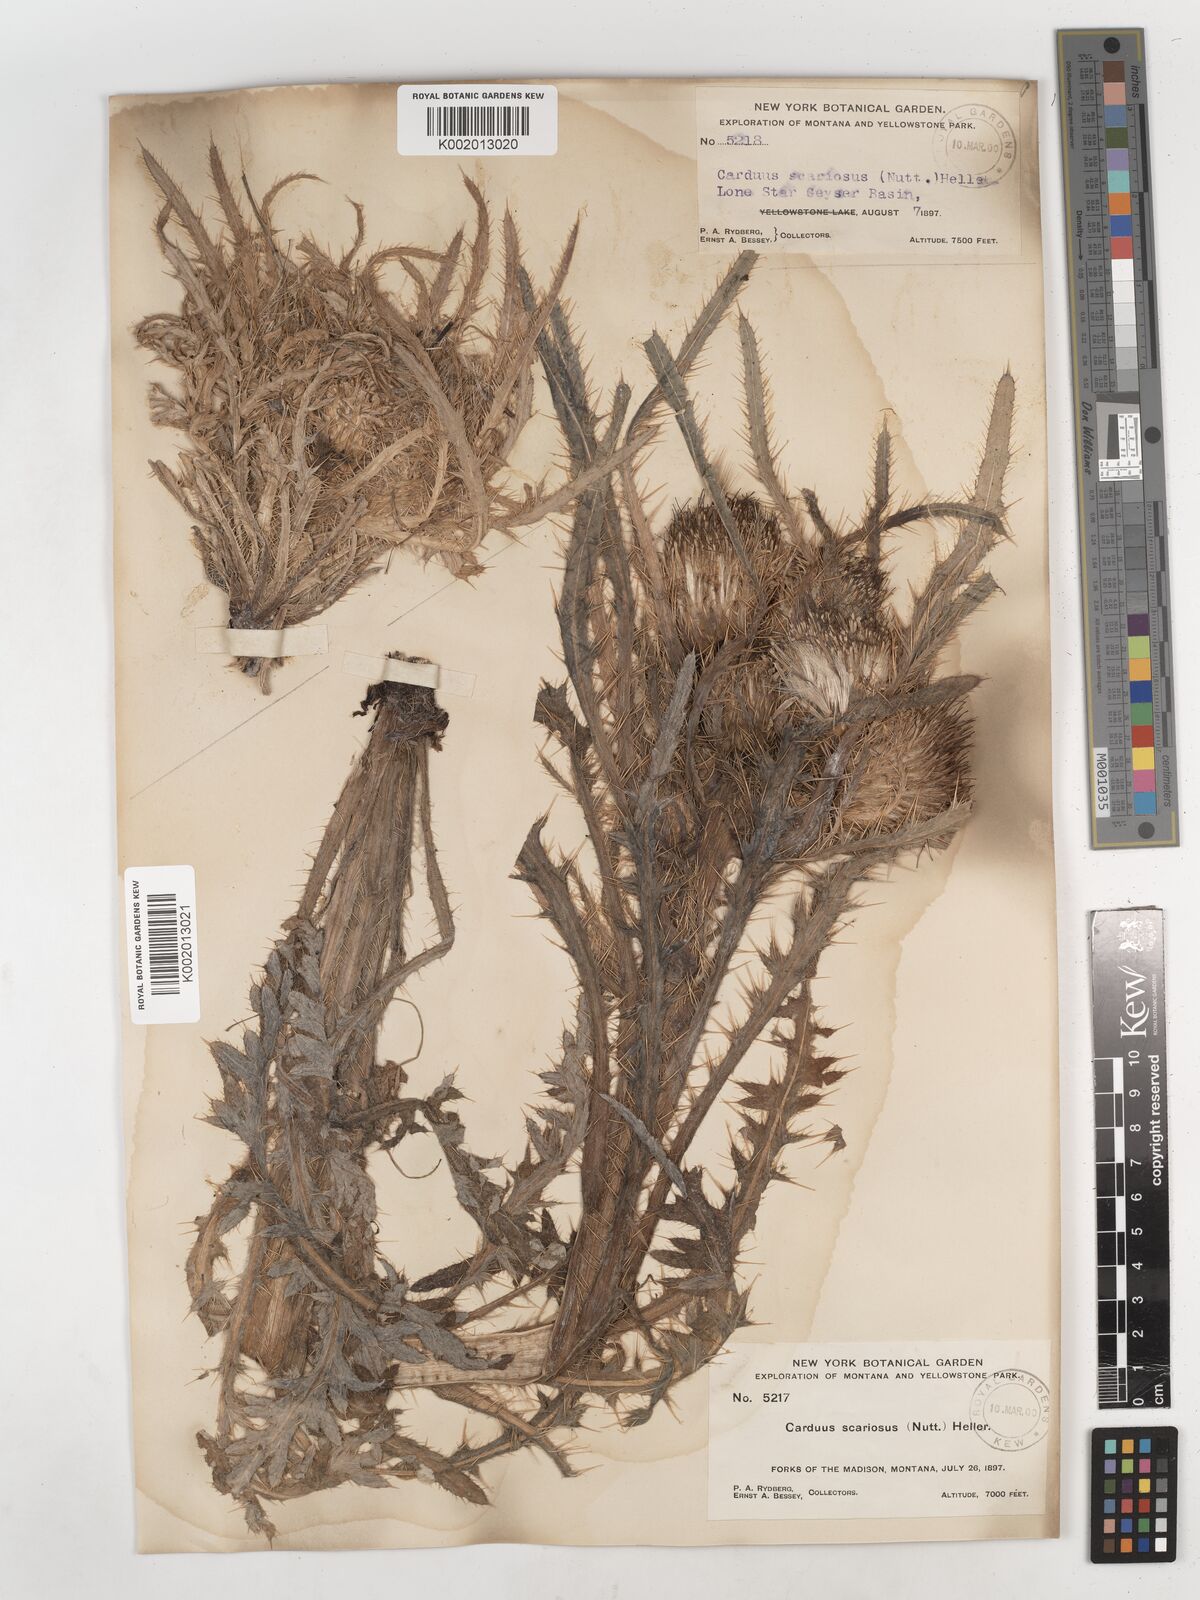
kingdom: Plantae
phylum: Tracheophyta
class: Magnoliopsida
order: Asterales
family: Asteraceae
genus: Cirsium
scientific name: Cirsium scariosum
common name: Meadow thistle
